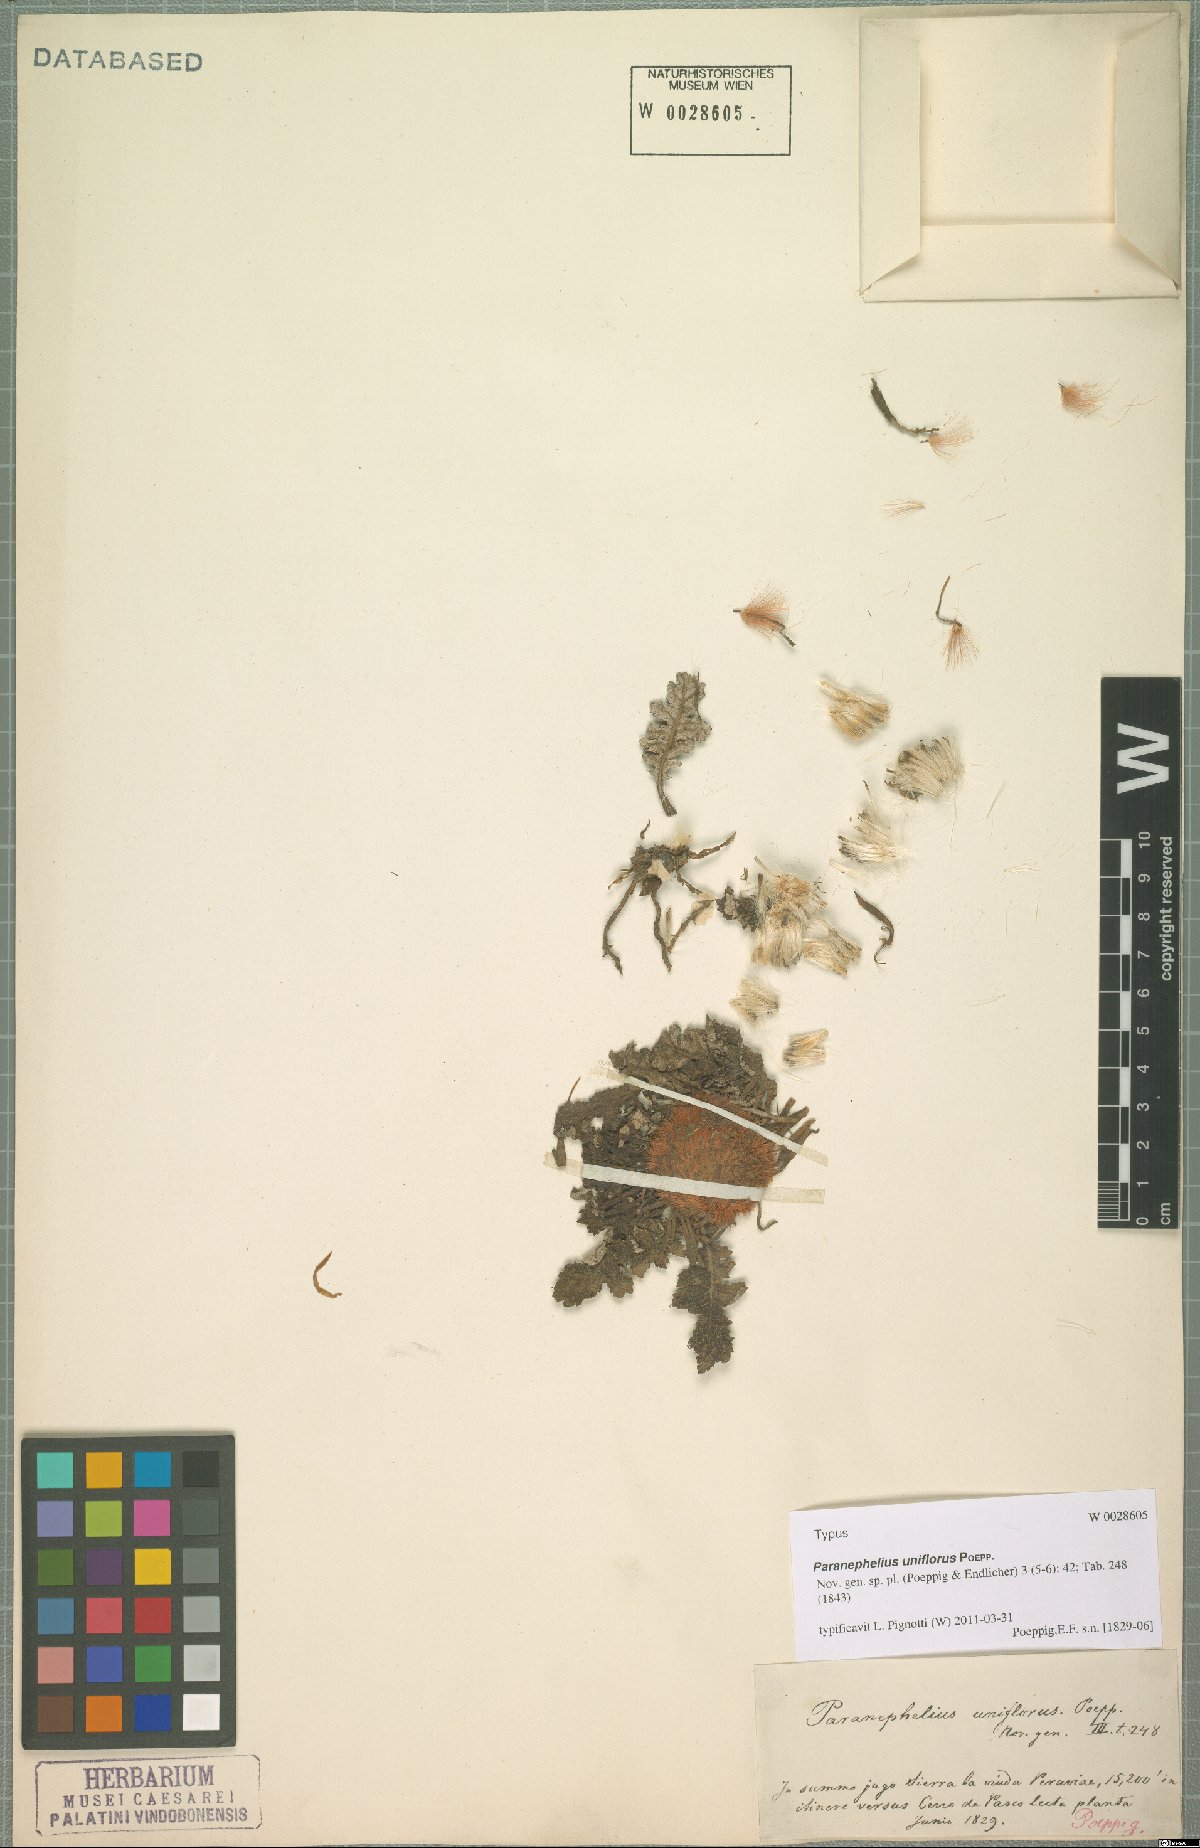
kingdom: Plantae
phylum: Tracheophyta
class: Magnoliopsida
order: Asterales
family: Asteraceae
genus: Paranephelius
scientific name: Paranephelius uniflorus
